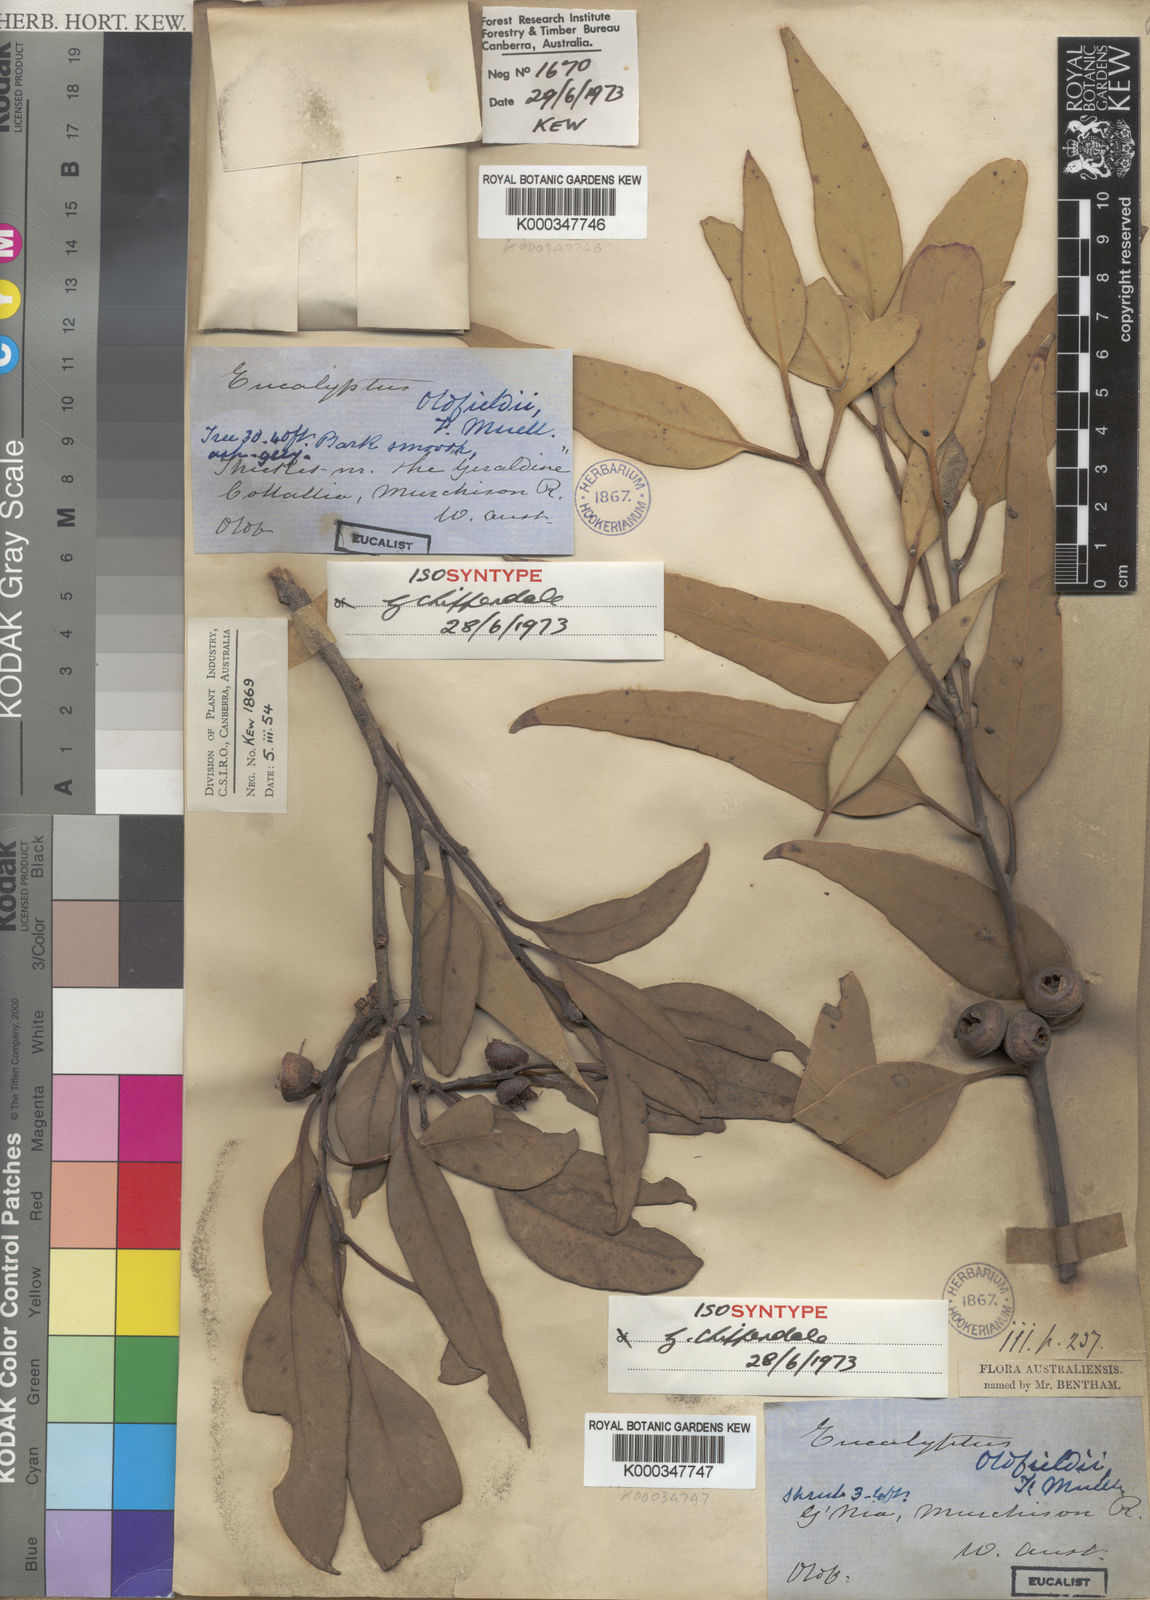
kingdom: Plantae
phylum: Tracheophyta
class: Magnoliopsida
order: Myrtales
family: Myrtaceae
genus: Eucalyptus
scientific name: Eucalyptus oldfieldii
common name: Old-fields mallee
